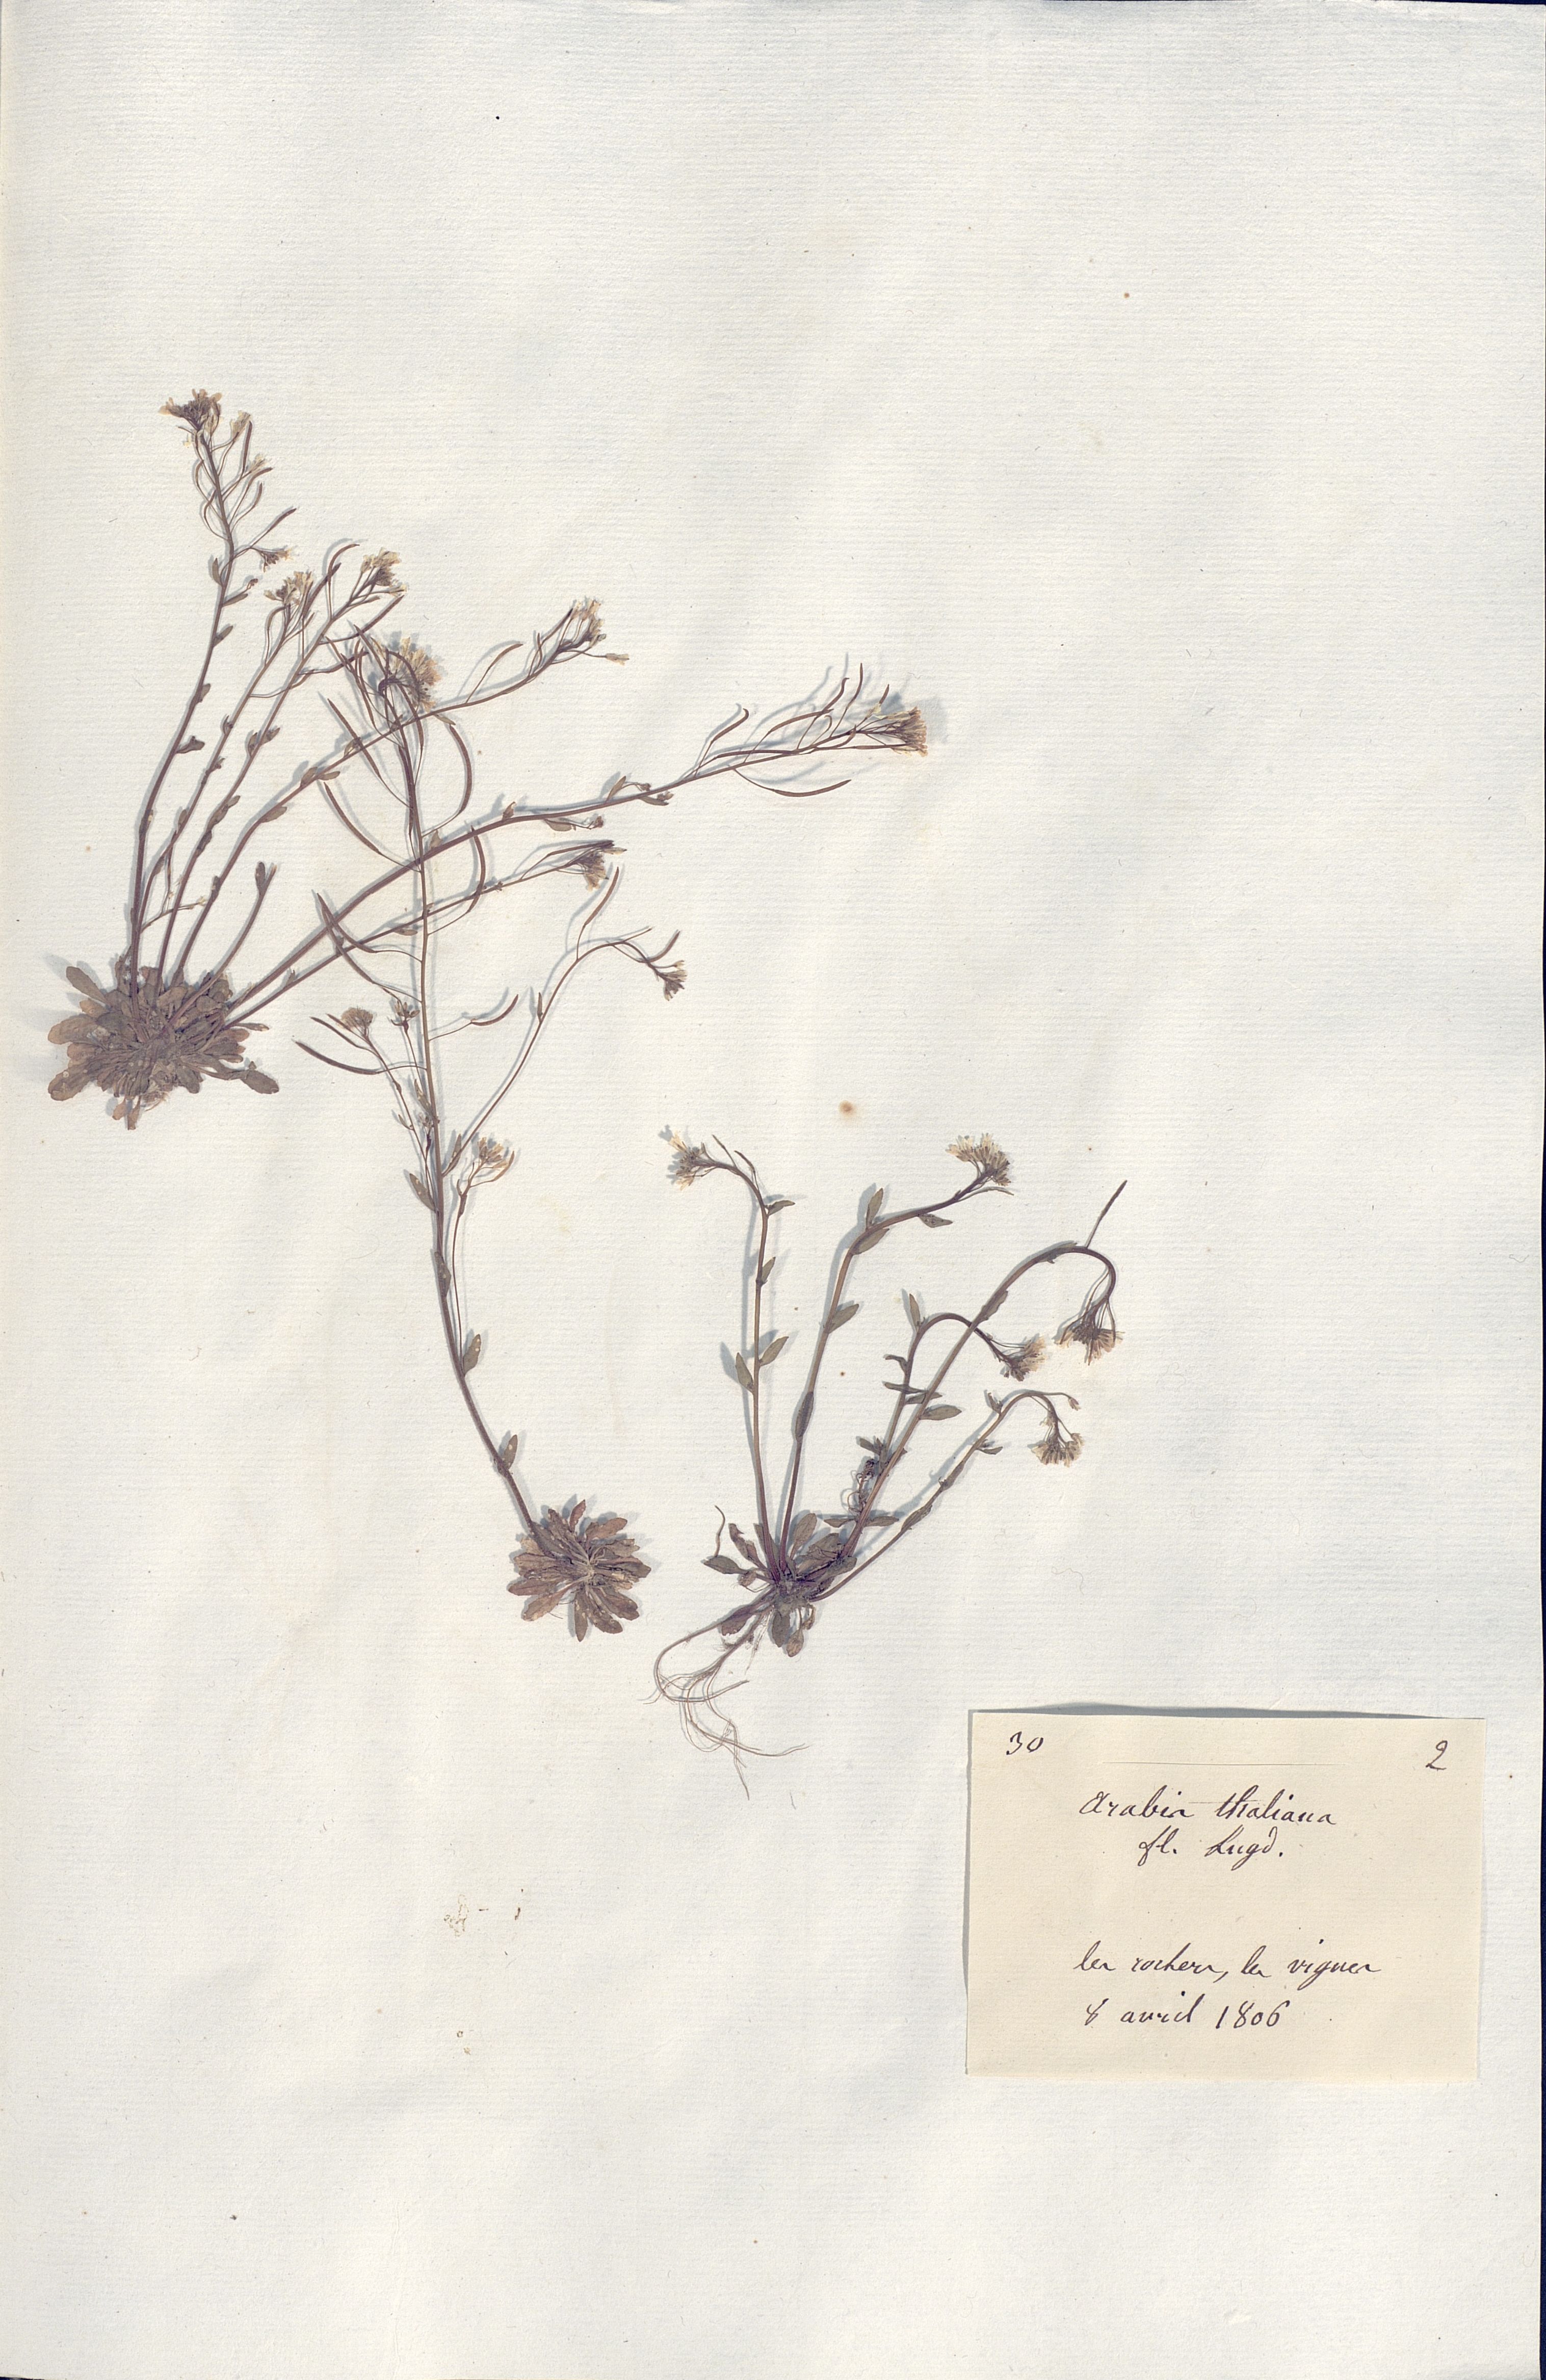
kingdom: Plantae
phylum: Tracheophyta
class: Magnoliopsida
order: Brassicales
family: Brassicaceae
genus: Arabidopsis
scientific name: Arabidopsis
